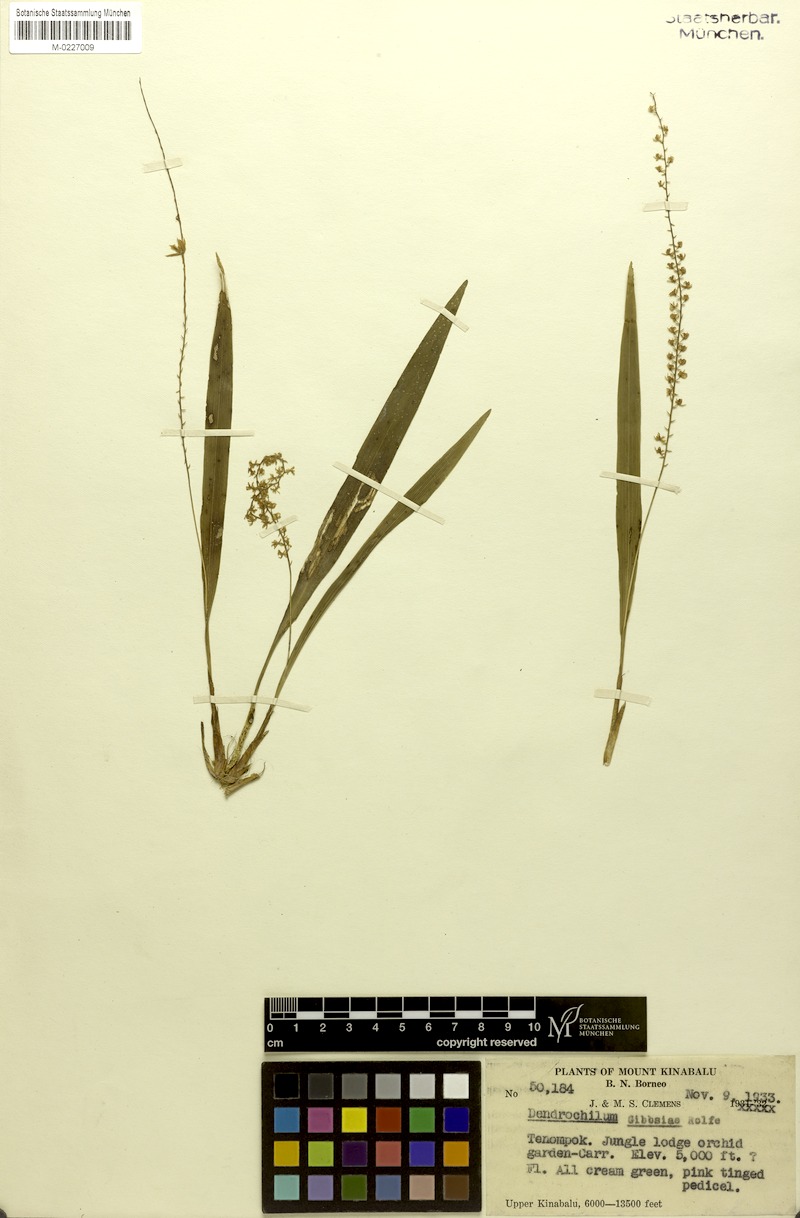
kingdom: Plantae
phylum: Tracheophyta
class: Liliopsida
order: Asparagales
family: Orchidaceae
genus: Coelogyne
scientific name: Coelogyne gibbsiae
